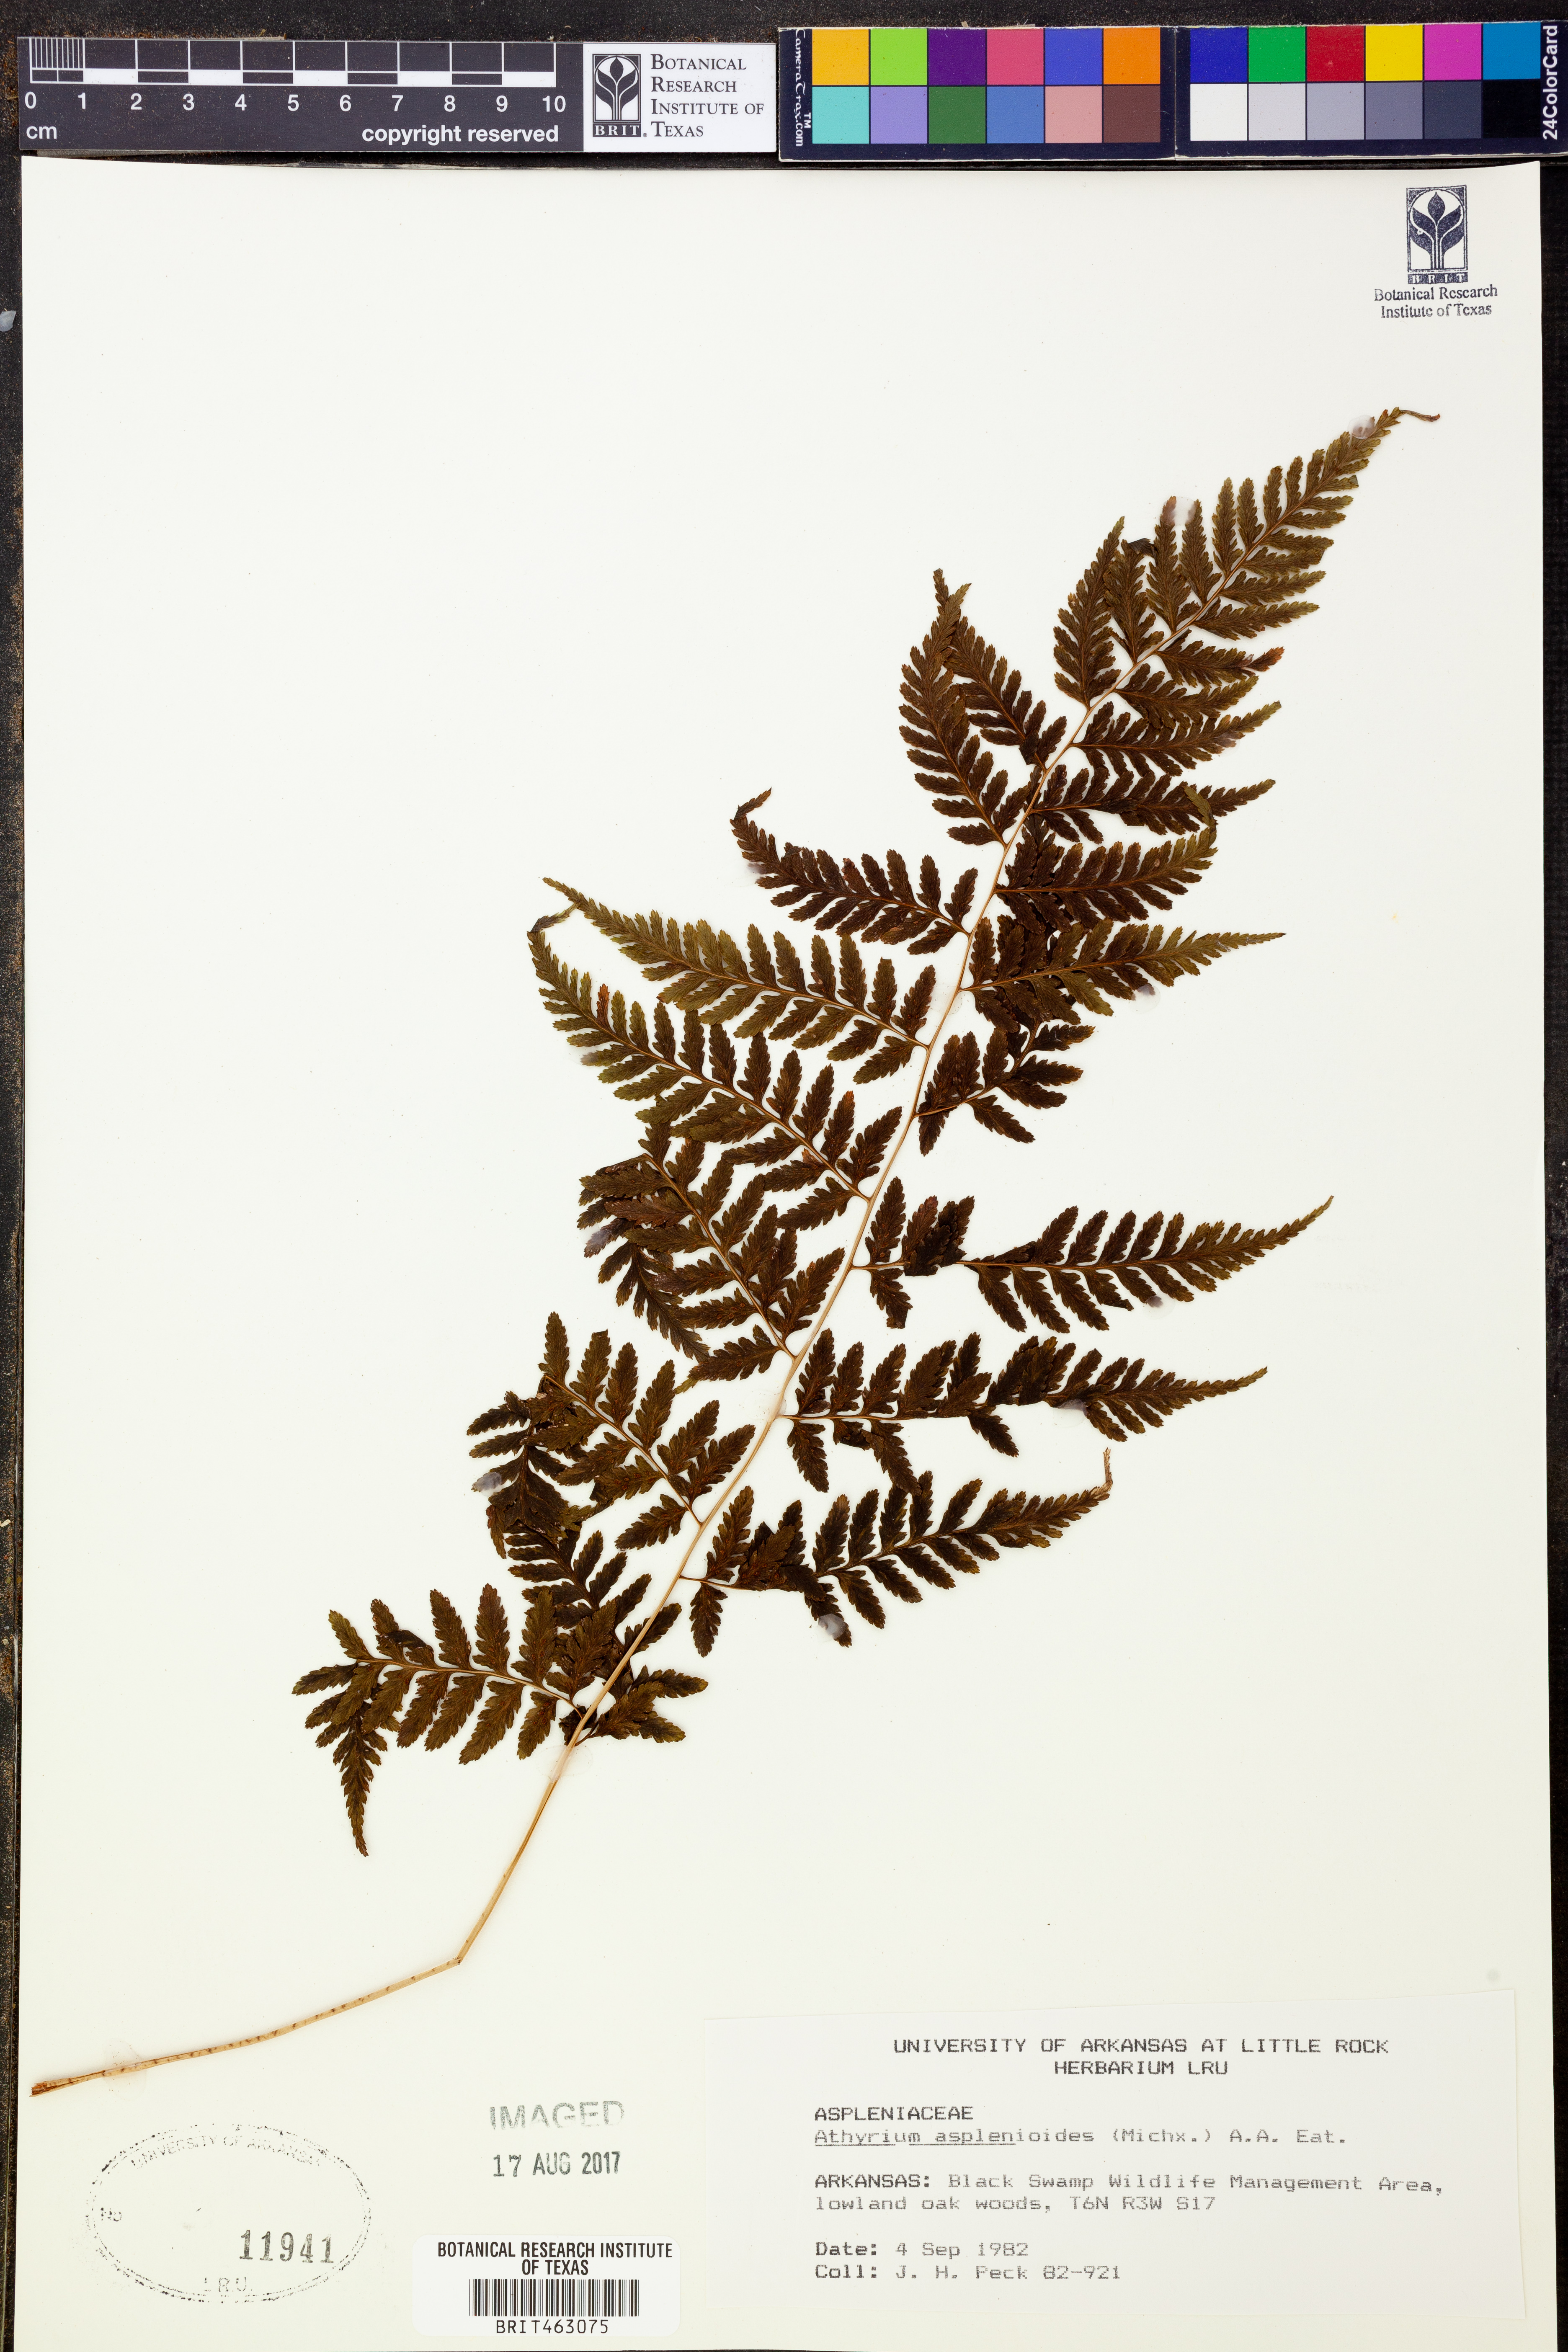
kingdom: Plantae
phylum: Tracheophyta
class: Polypodiopsida
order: Polypodiales
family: Athyriaceae
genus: Athyrium
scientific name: Athyrium asplenioides
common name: Southern lady fern
